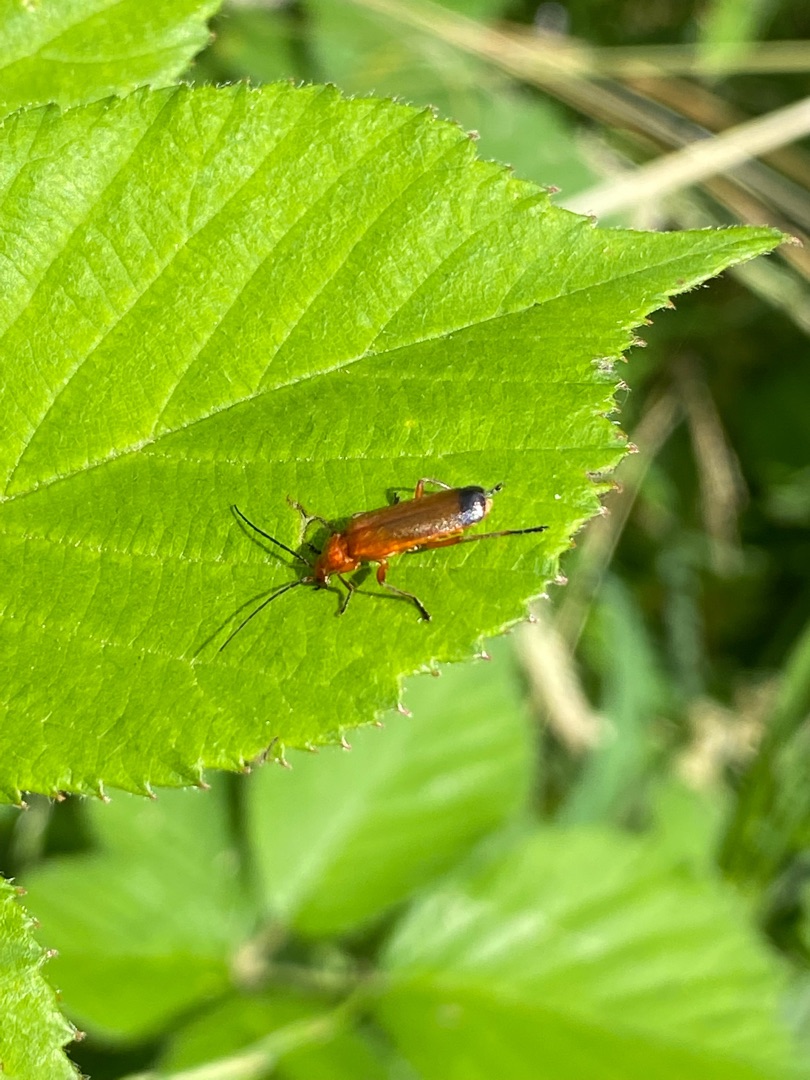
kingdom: Animalia
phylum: Arthropoda
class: Insecta
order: Coleoptera
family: Cantharidae
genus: Rhagonycha
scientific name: Rhagonycha fulva
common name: Præstebille
